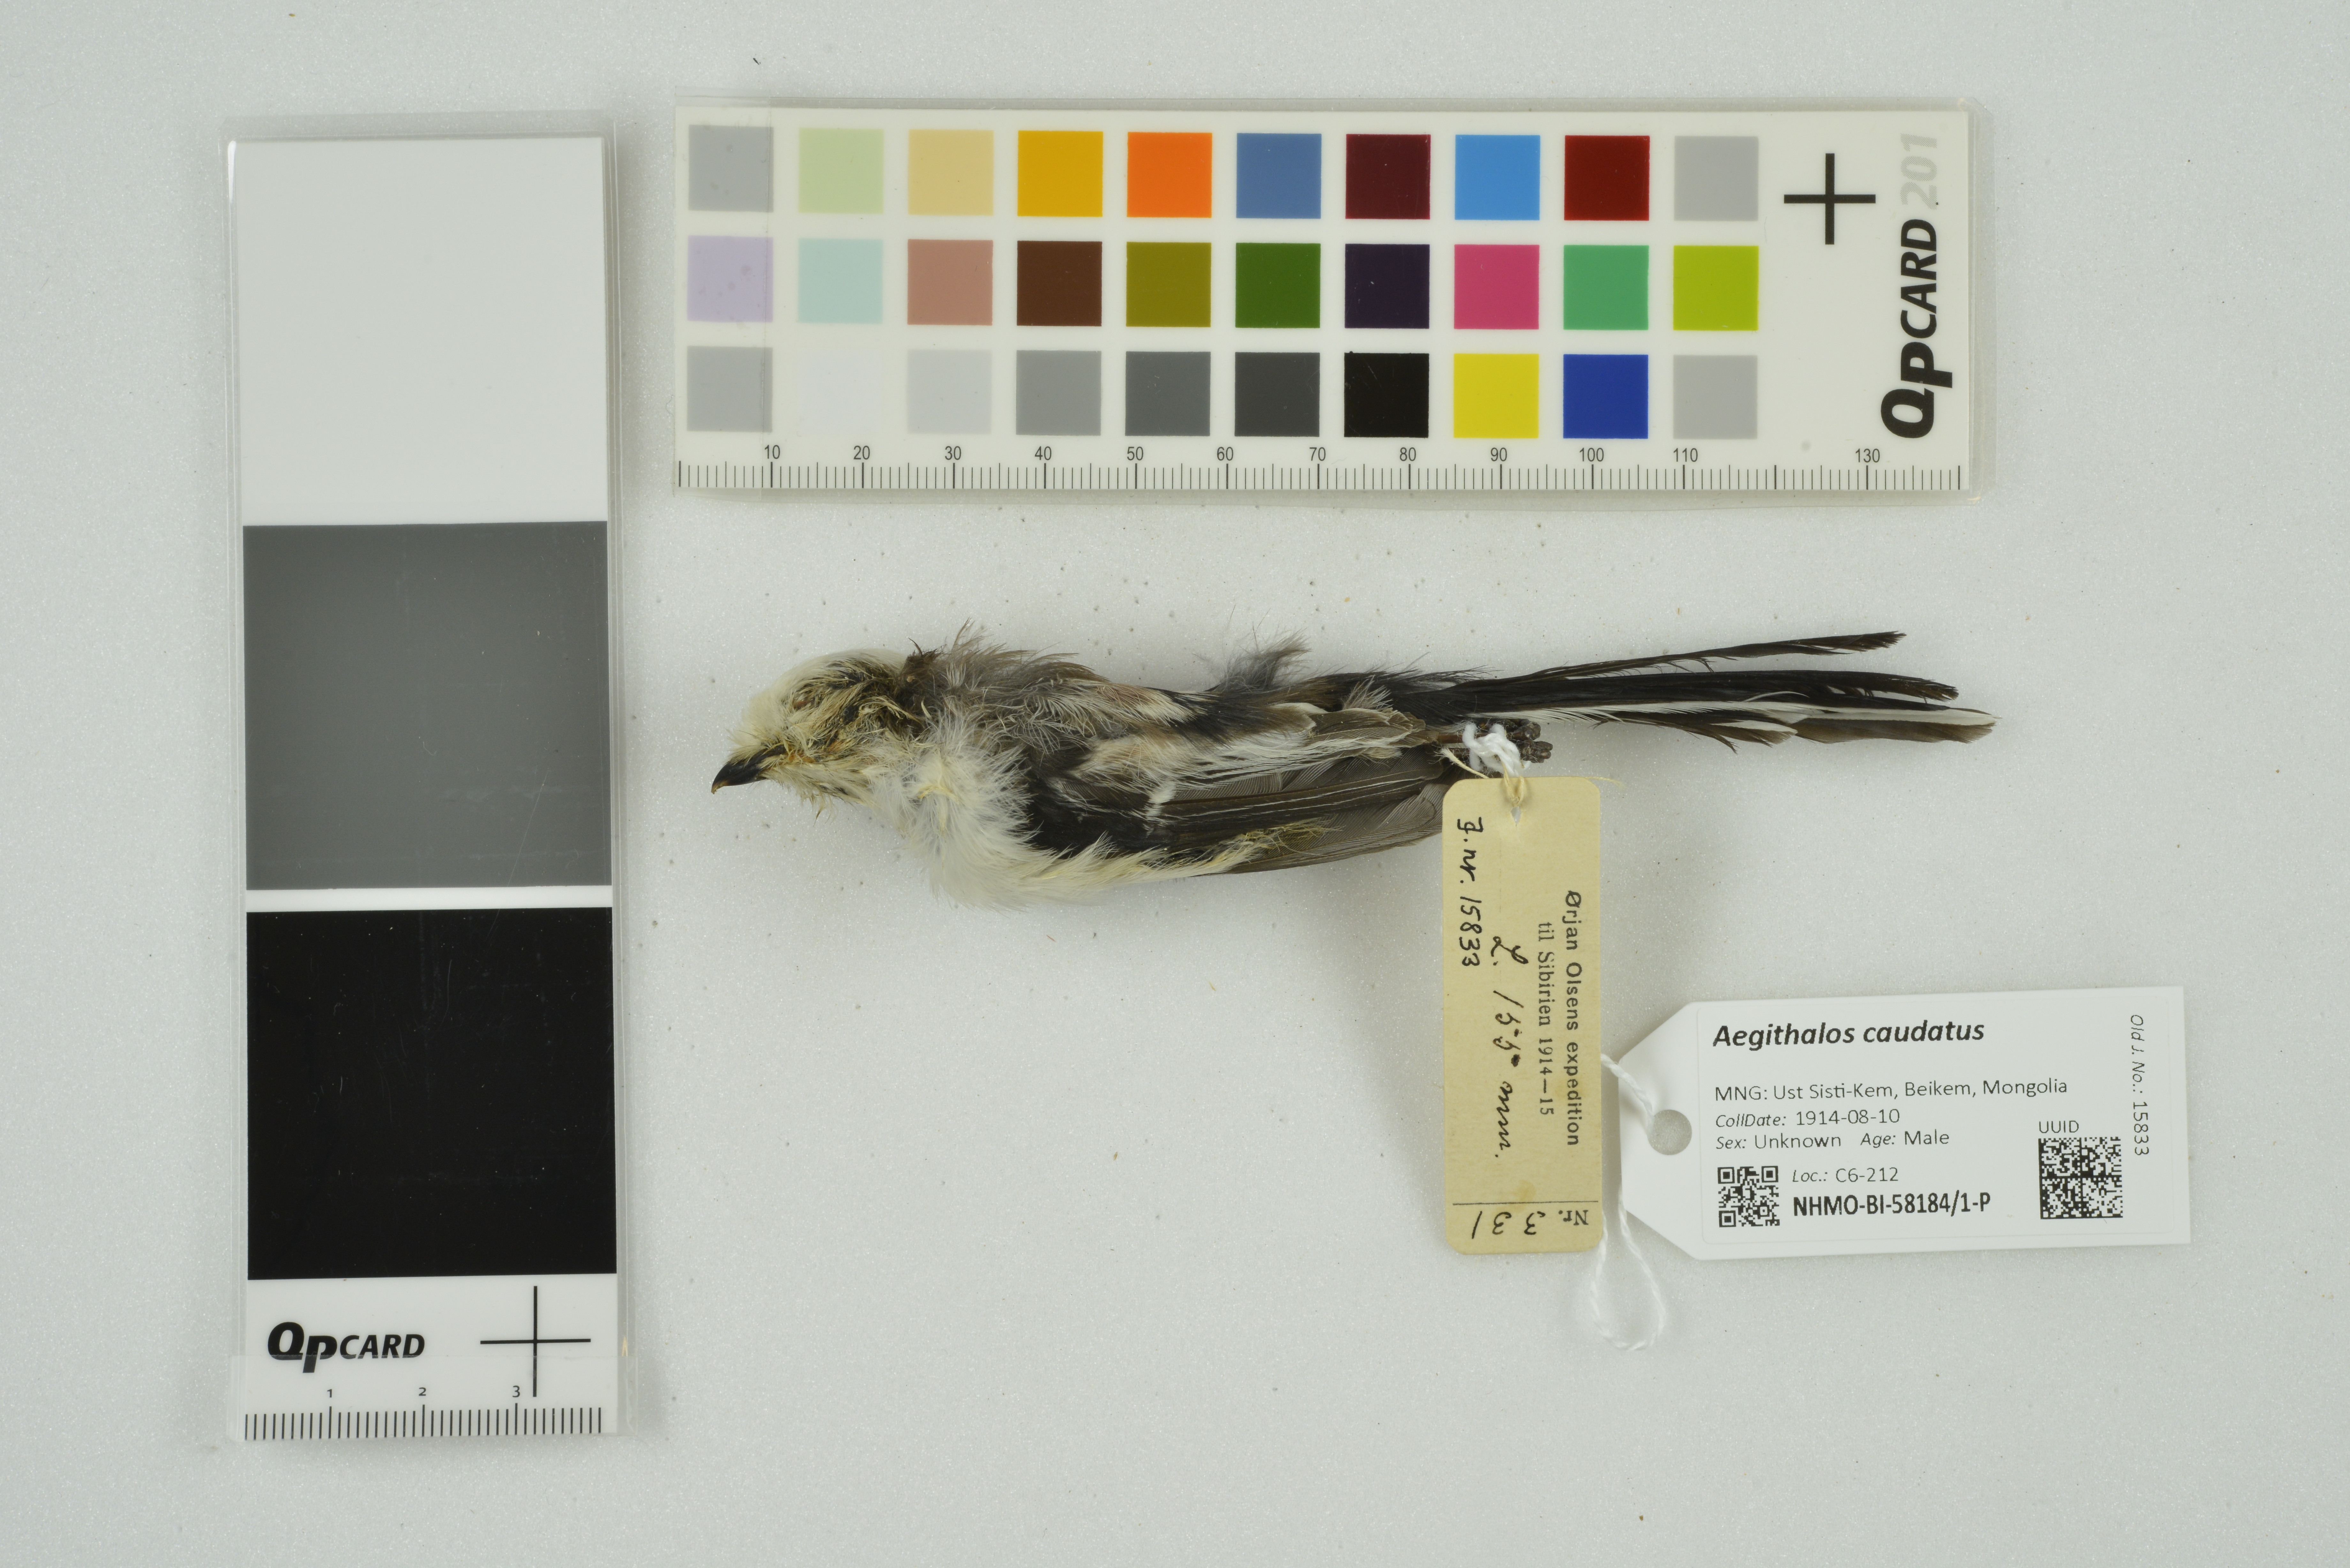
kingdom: Animalia
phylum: Chordata
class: Aves
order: Passeriformes
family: Aegithalidae
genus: Aegithalos
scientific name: Aegithalos caudatus
